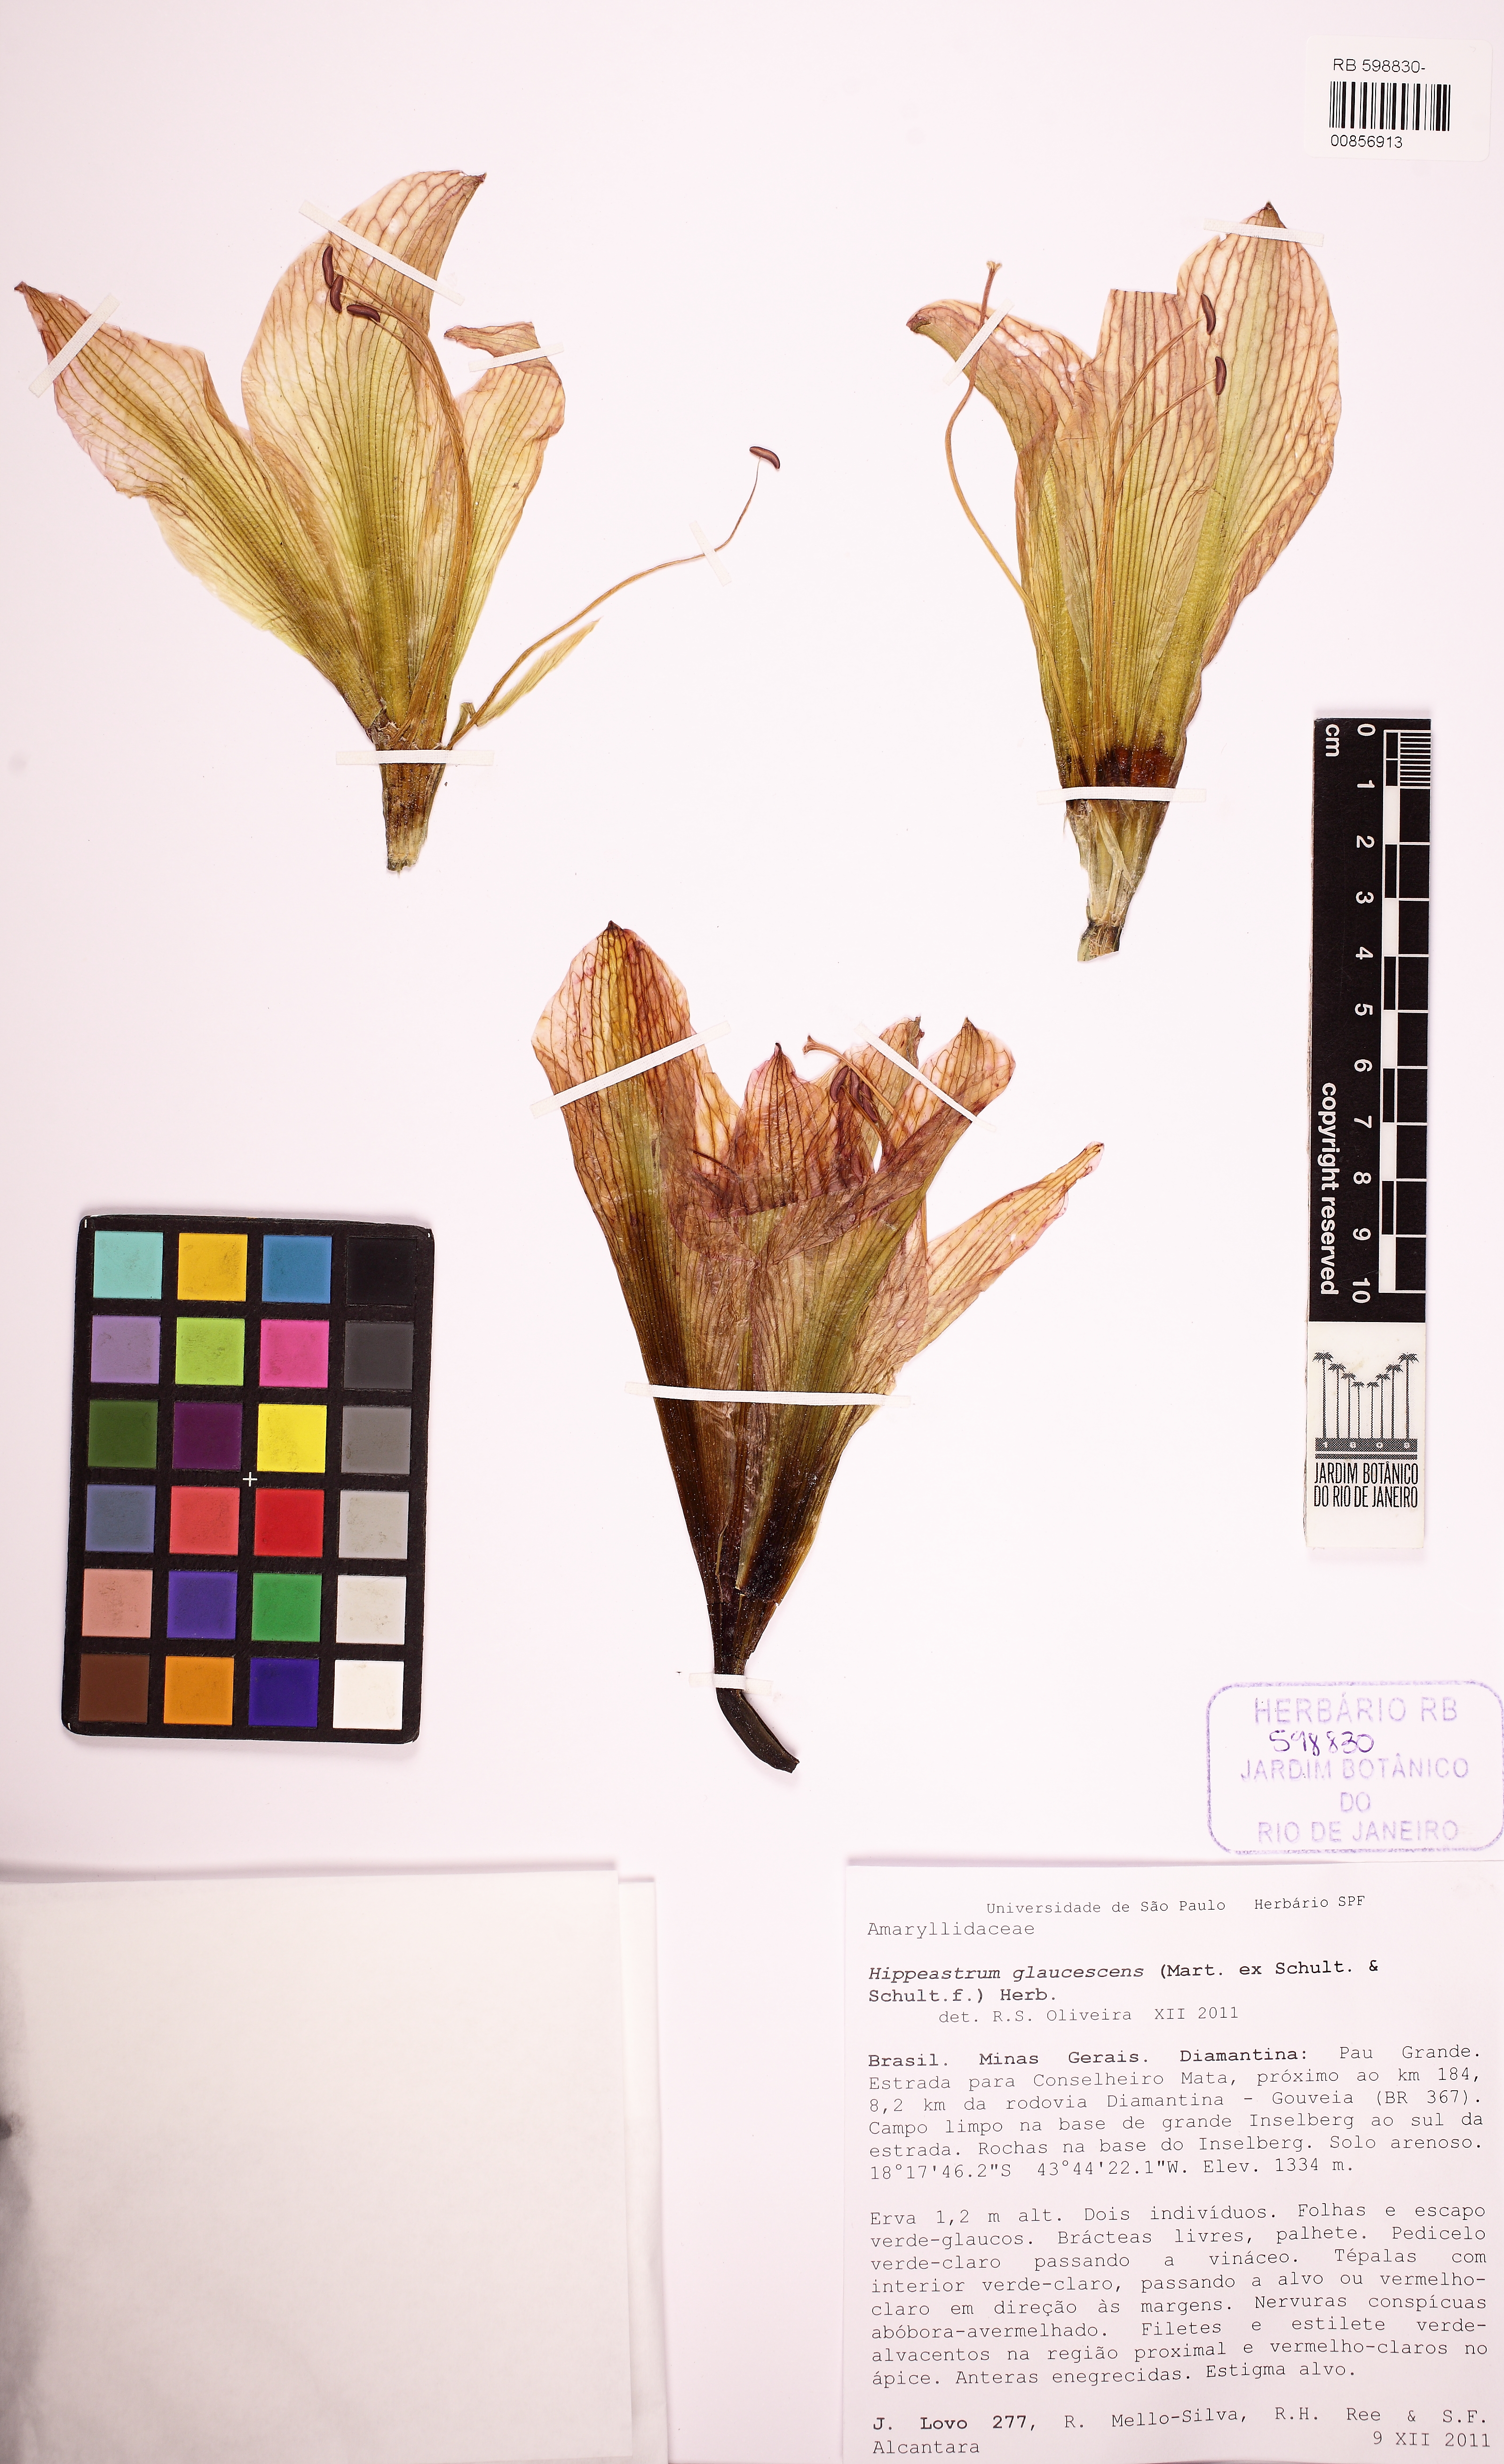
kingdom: Plantae
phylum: Tracheophyta
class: Liliopsida
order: Asparagales
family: Amaryllidaceae
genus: Hippeastrum
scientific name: Hippeastrum glaucescens
